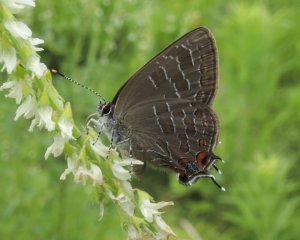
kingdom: Animalia
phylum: Arthropoda
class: Insecta
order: Lepidoptera
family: Lycaenidae
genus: Satyrium
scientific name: Satyrium liparops
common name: Striped Hairstreak
